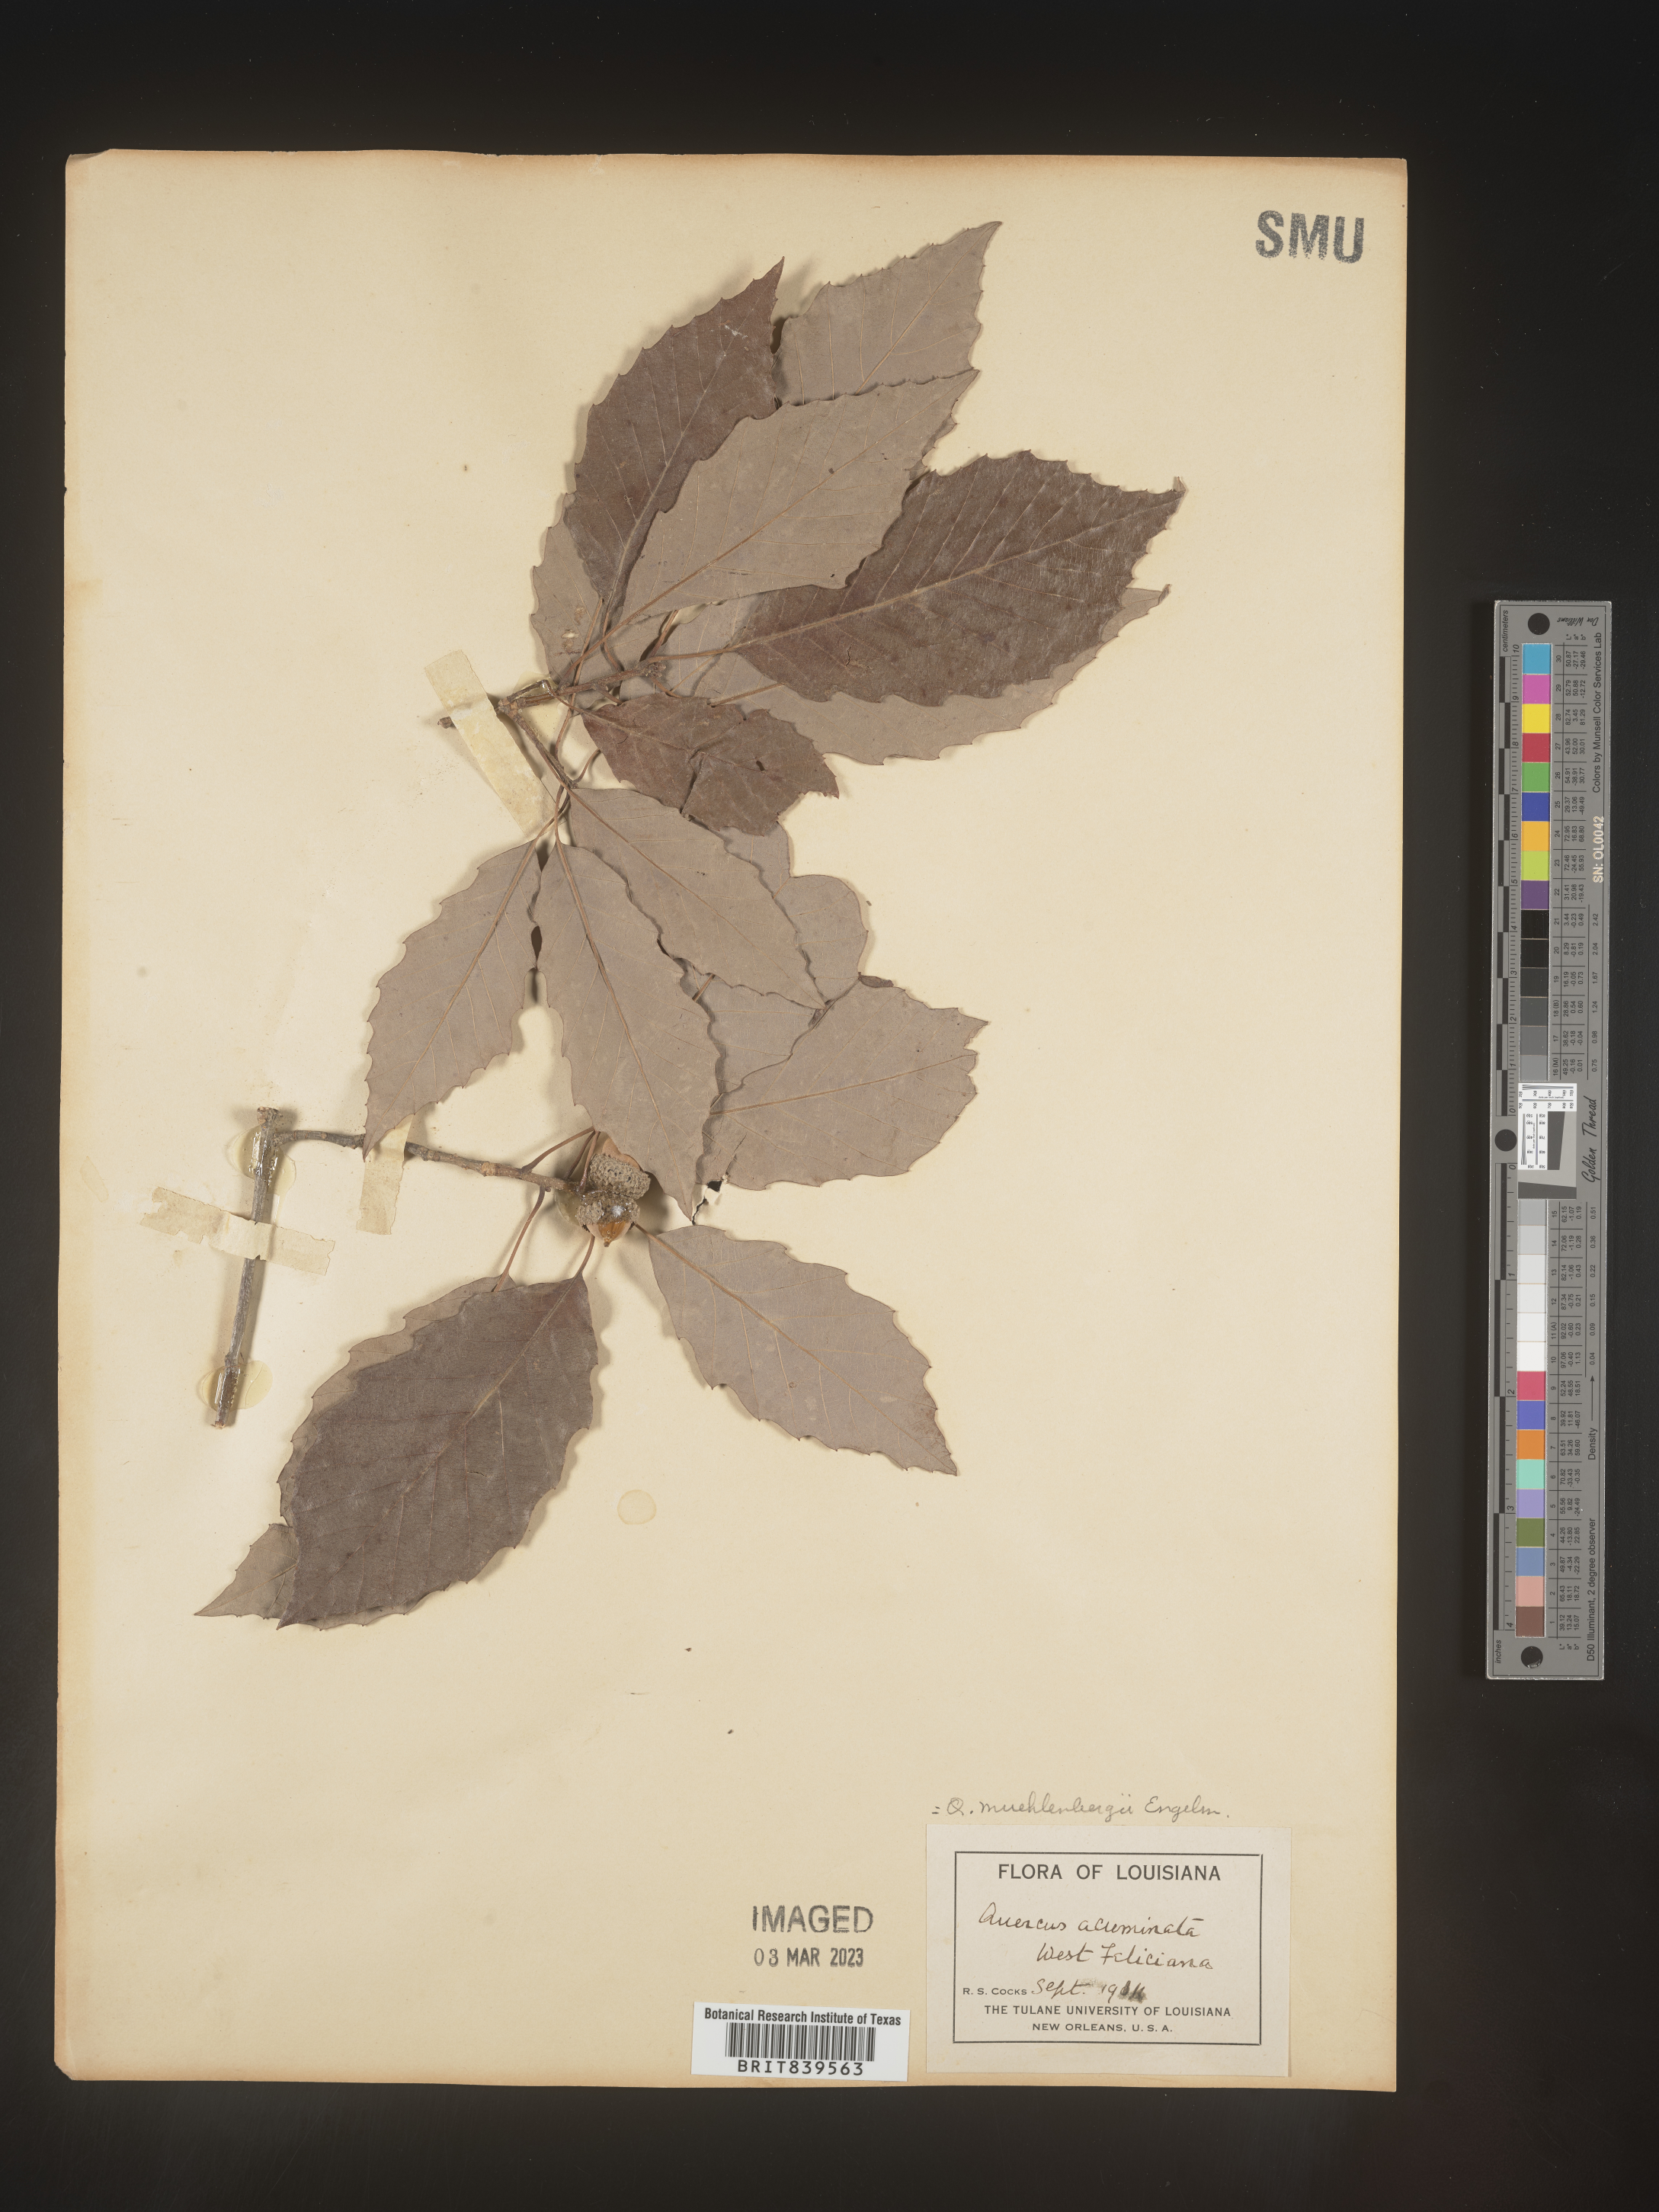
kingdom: Plantae
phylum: Tracheophyta
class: Magnoliopsida
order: Fagales
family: Fagaceae
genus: Quercus
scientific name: Quercus muehlenbergii
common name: Chinkapin oak
